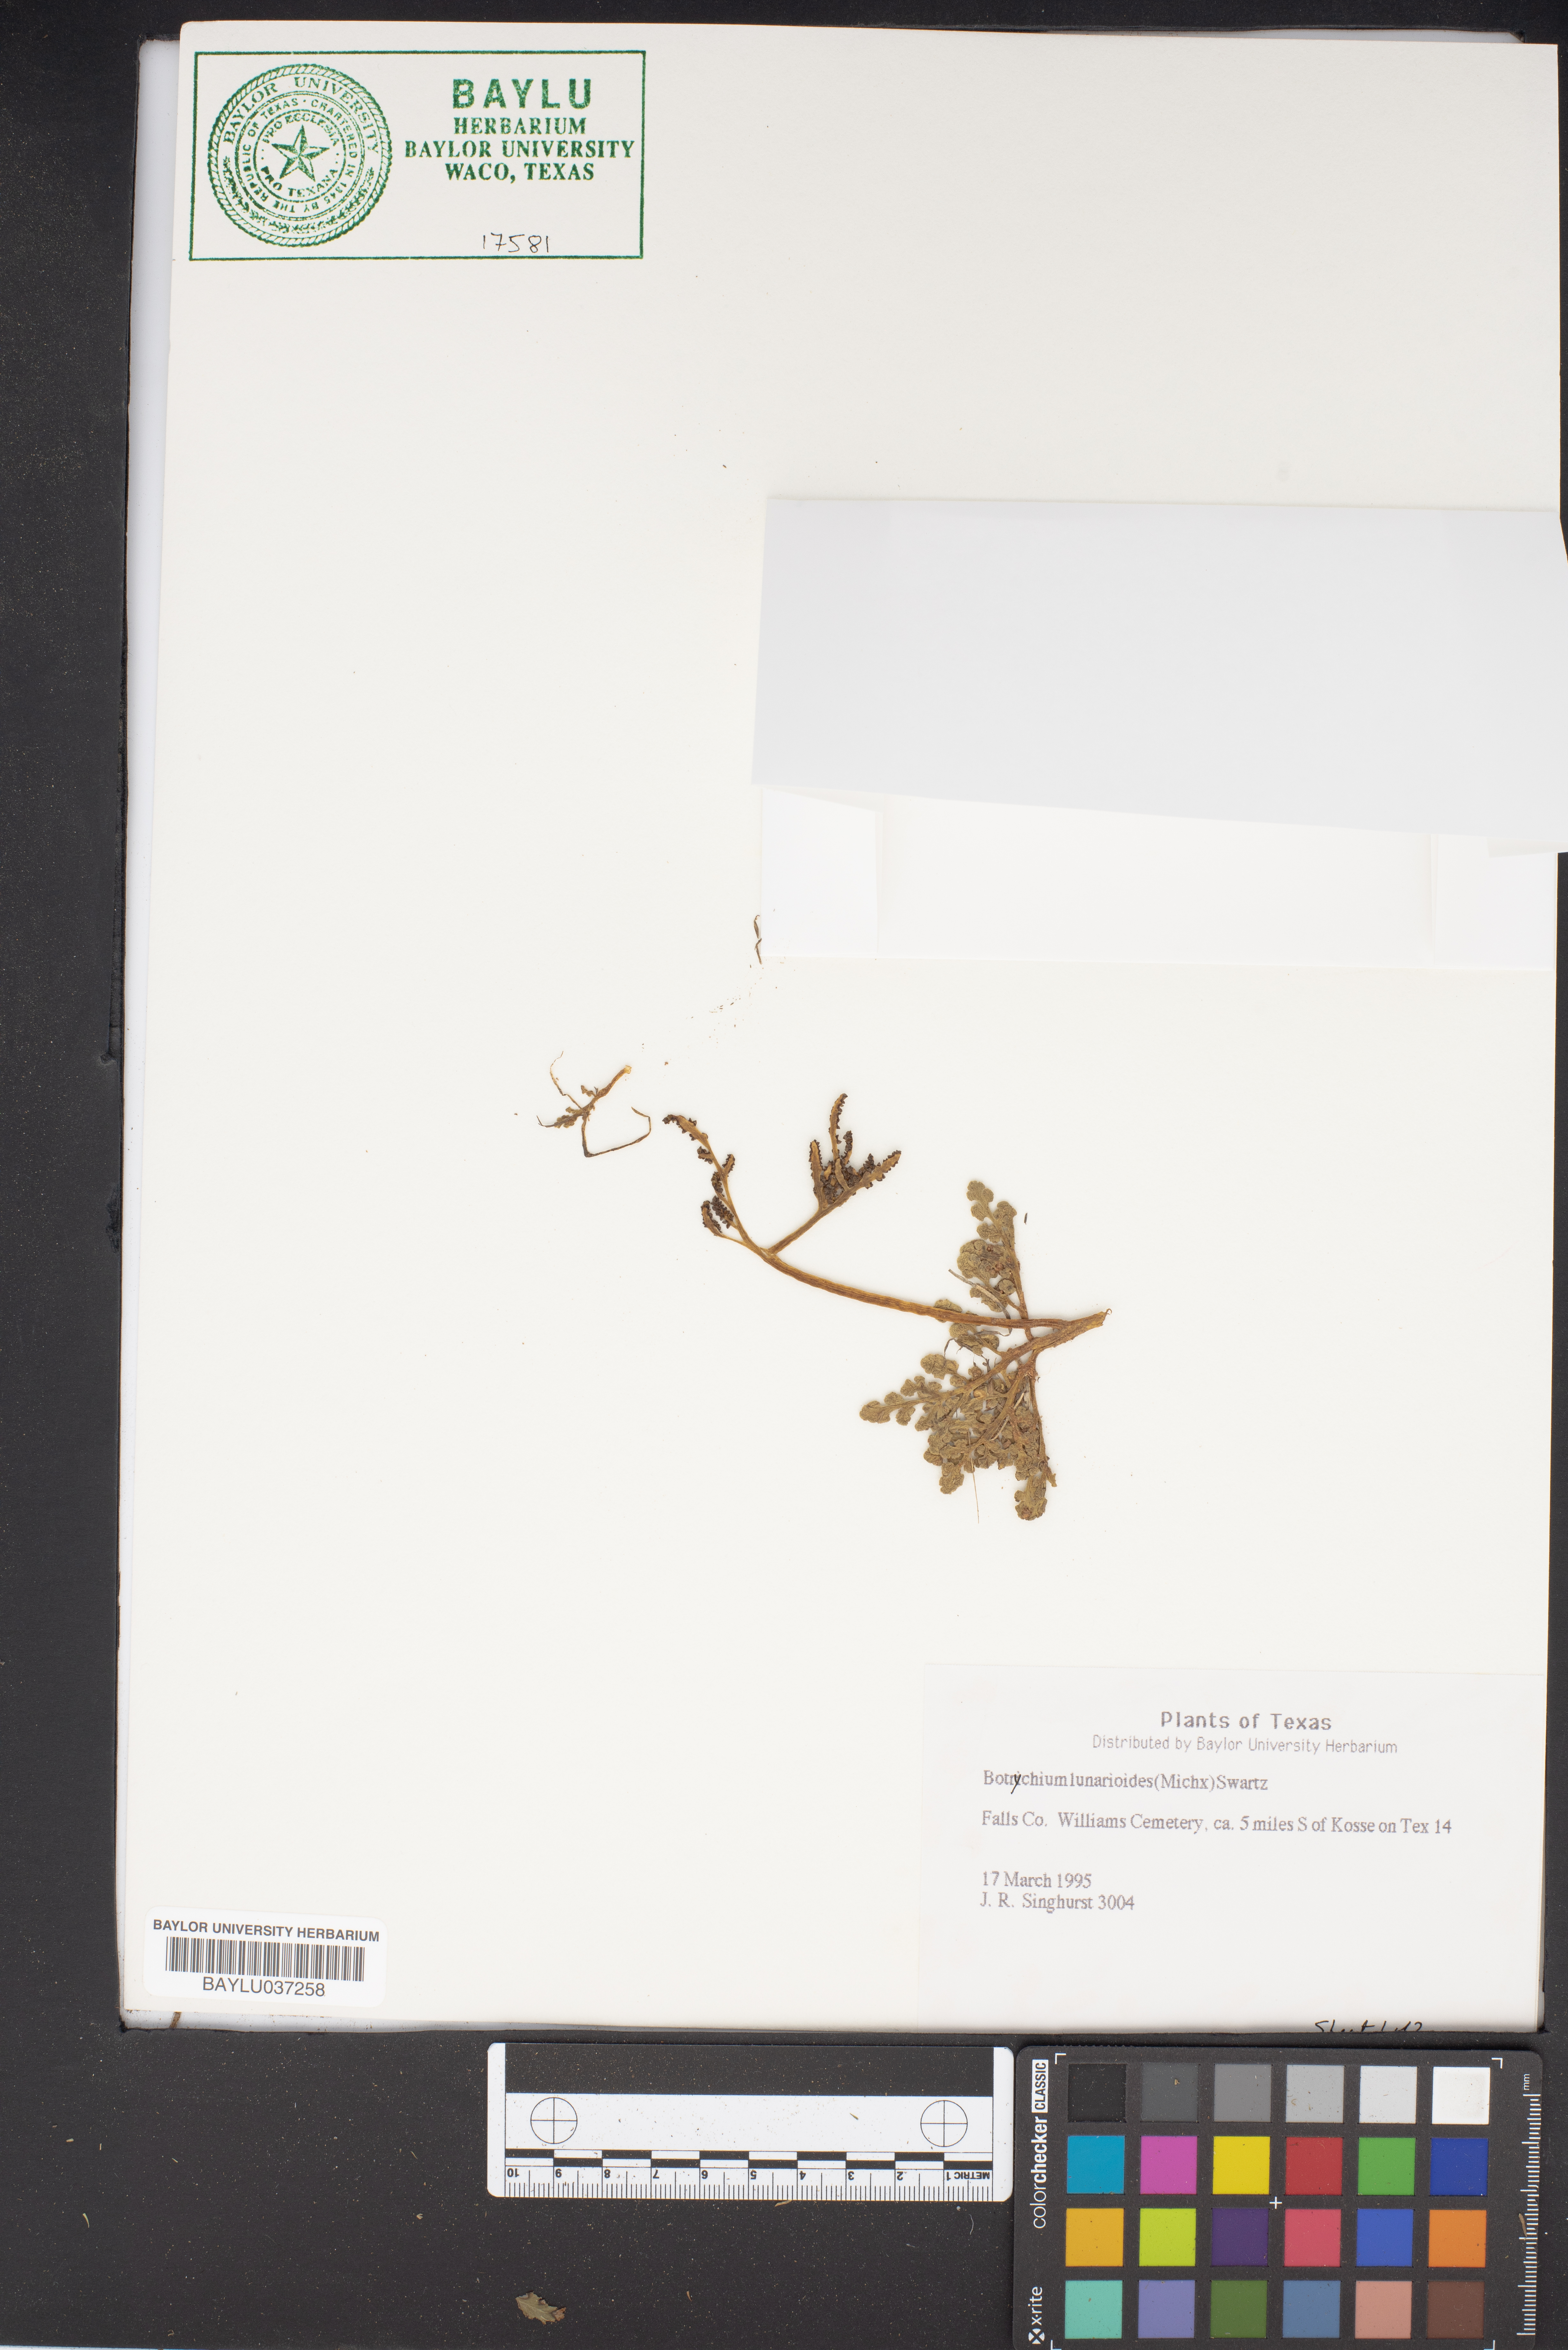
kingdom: Plantae
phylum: Tracheophyta
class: Polypodiopsida
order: Ophioglossales
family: Ophioglossaceae
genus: Sceptridium
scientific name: Sceptridium lunarioides
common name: Prostrate grapefern
